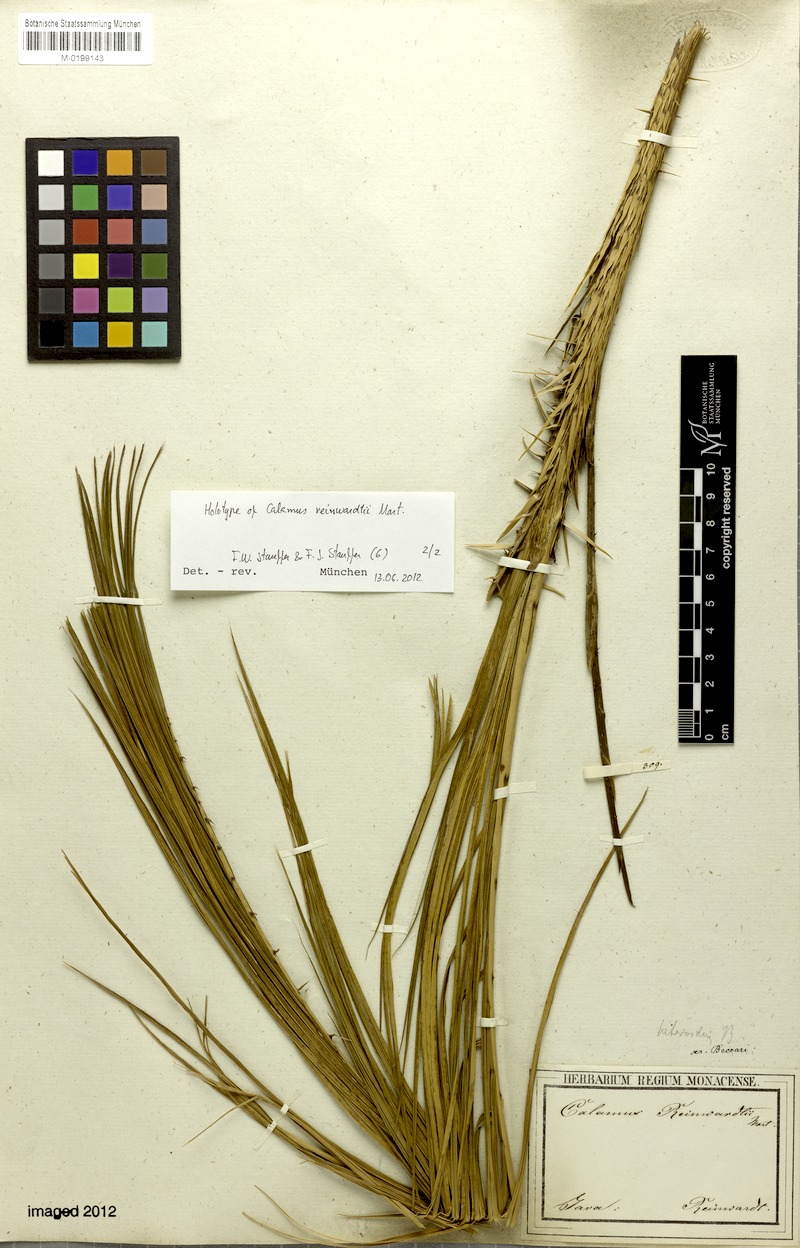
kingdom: Plantae
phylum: Tracheophyta
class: Liliopsida
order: Arecales
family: Arecaceae
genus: Calamus
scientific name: Calamus reinwardtii
